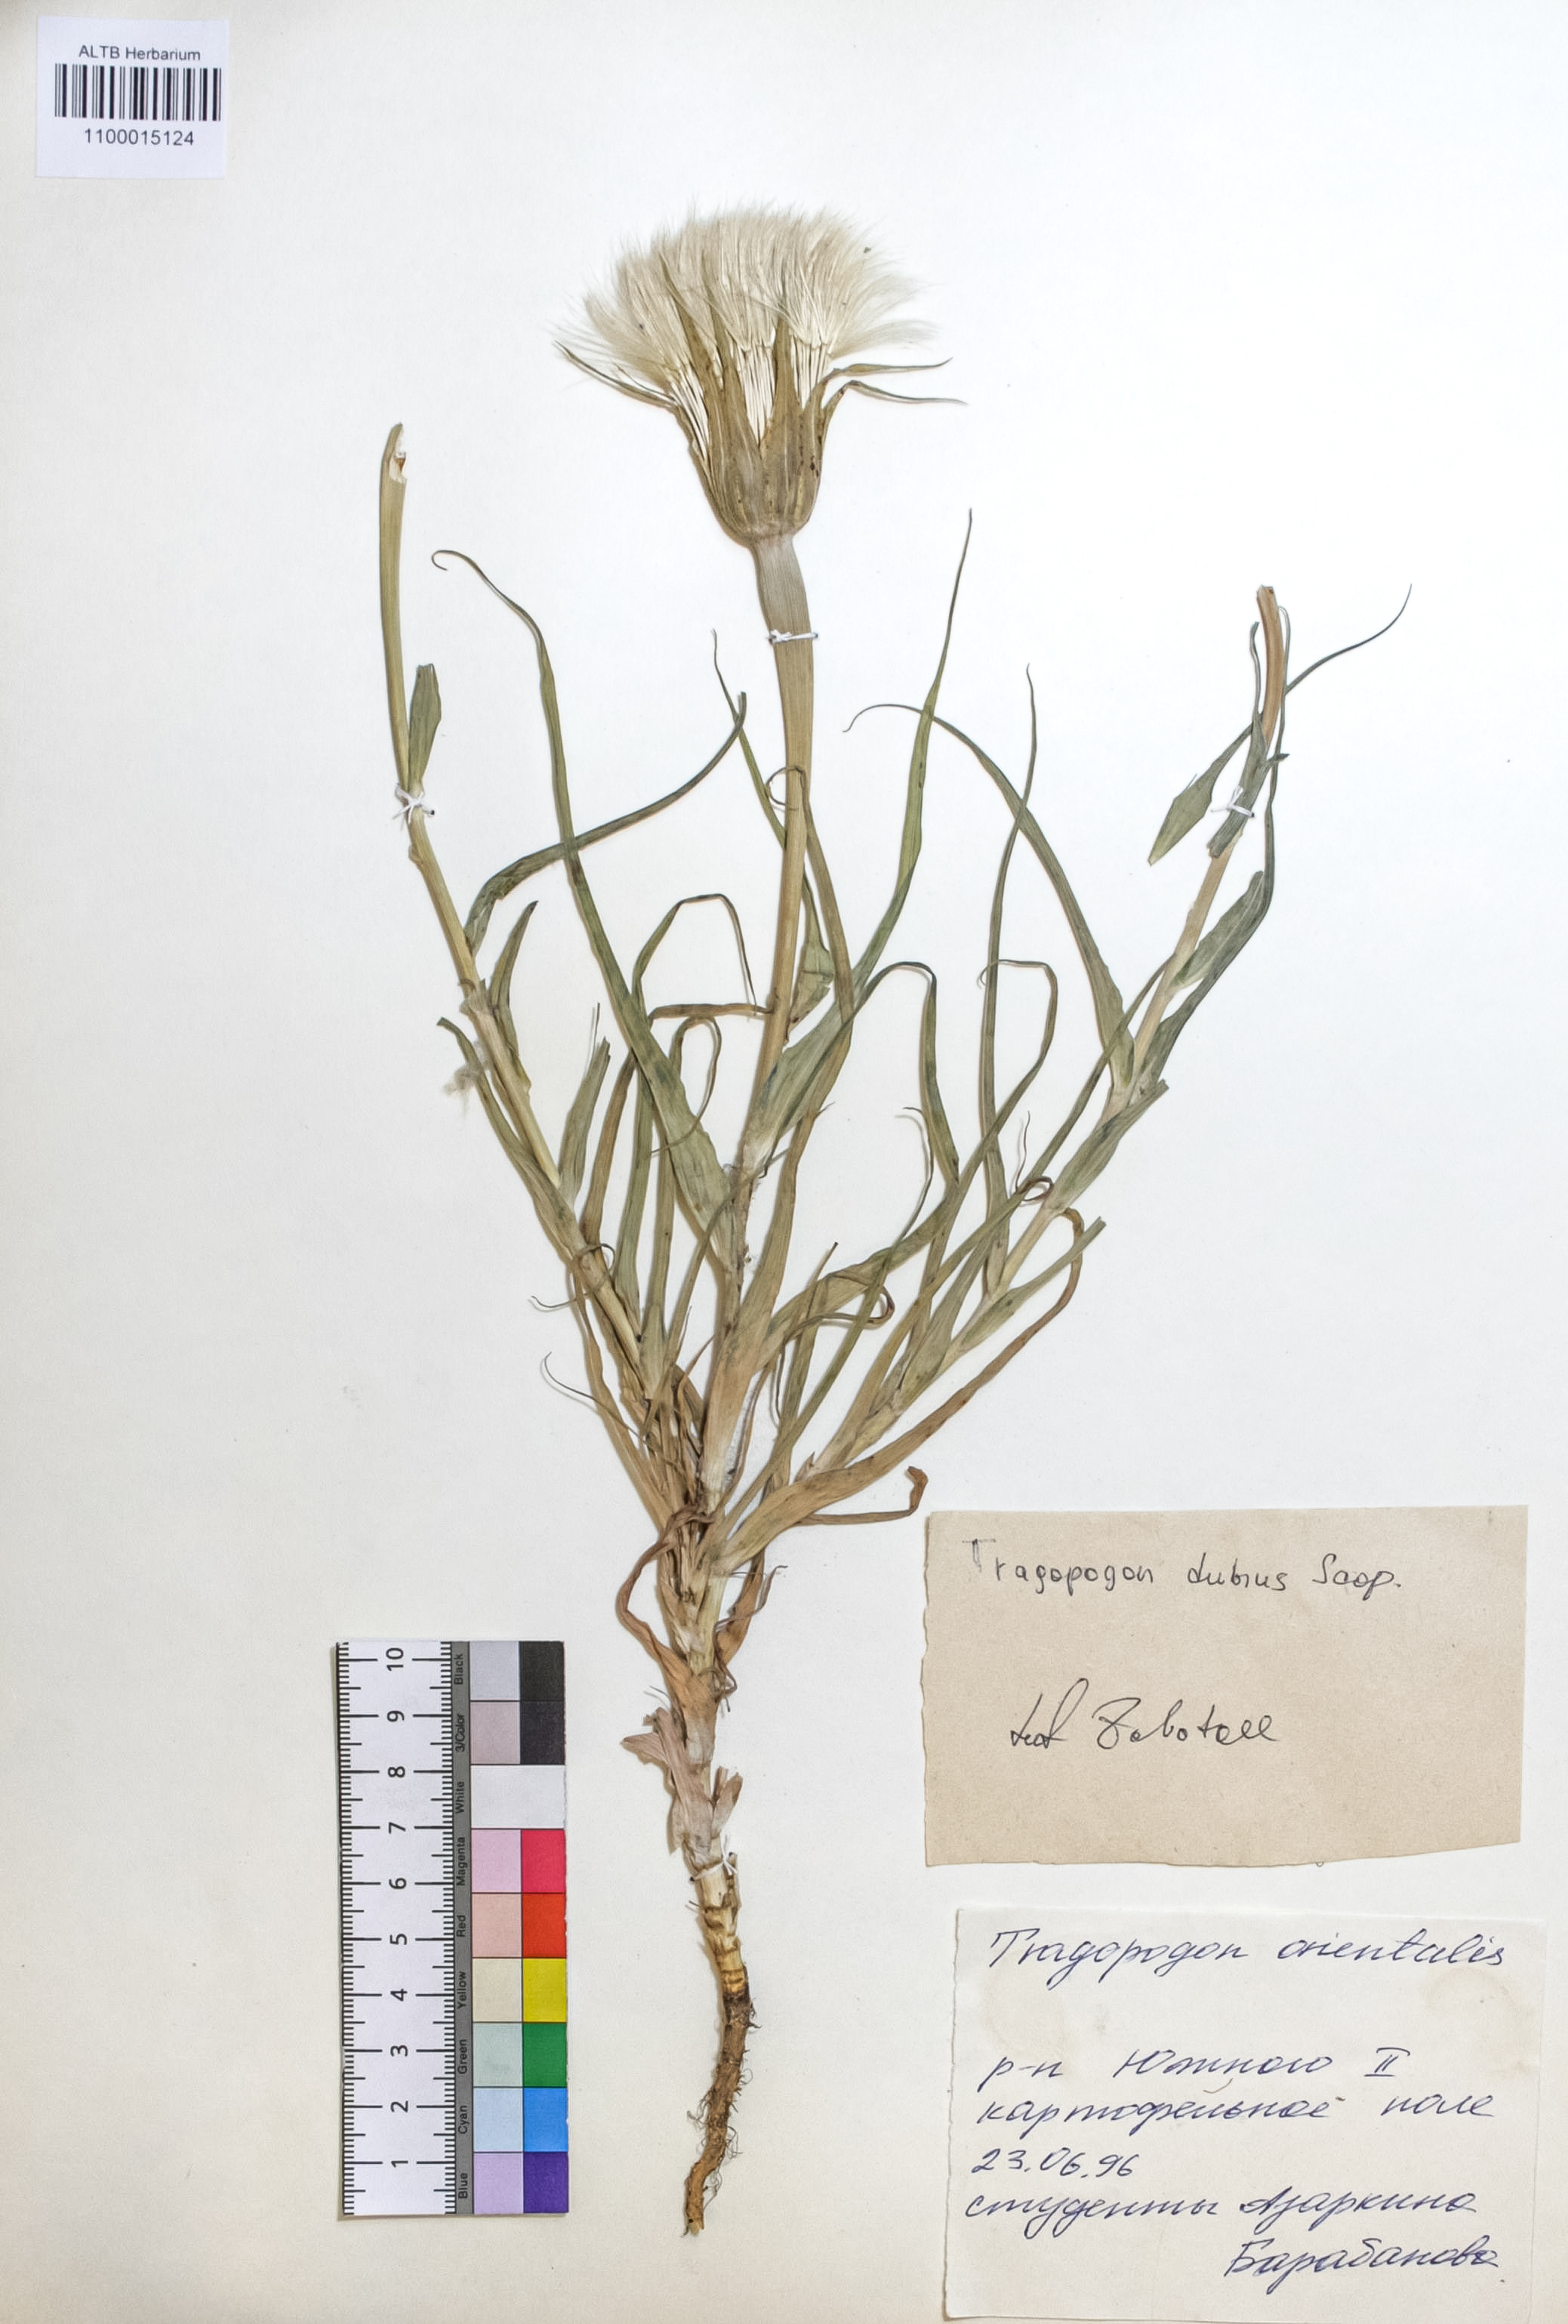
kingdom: Plantae
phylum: Tracheophyta
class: Magnoliopsida
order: Asterales
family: Asteraceae
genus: Tragopogon
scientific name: Tragopogon dubius
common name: Yellow salsify
